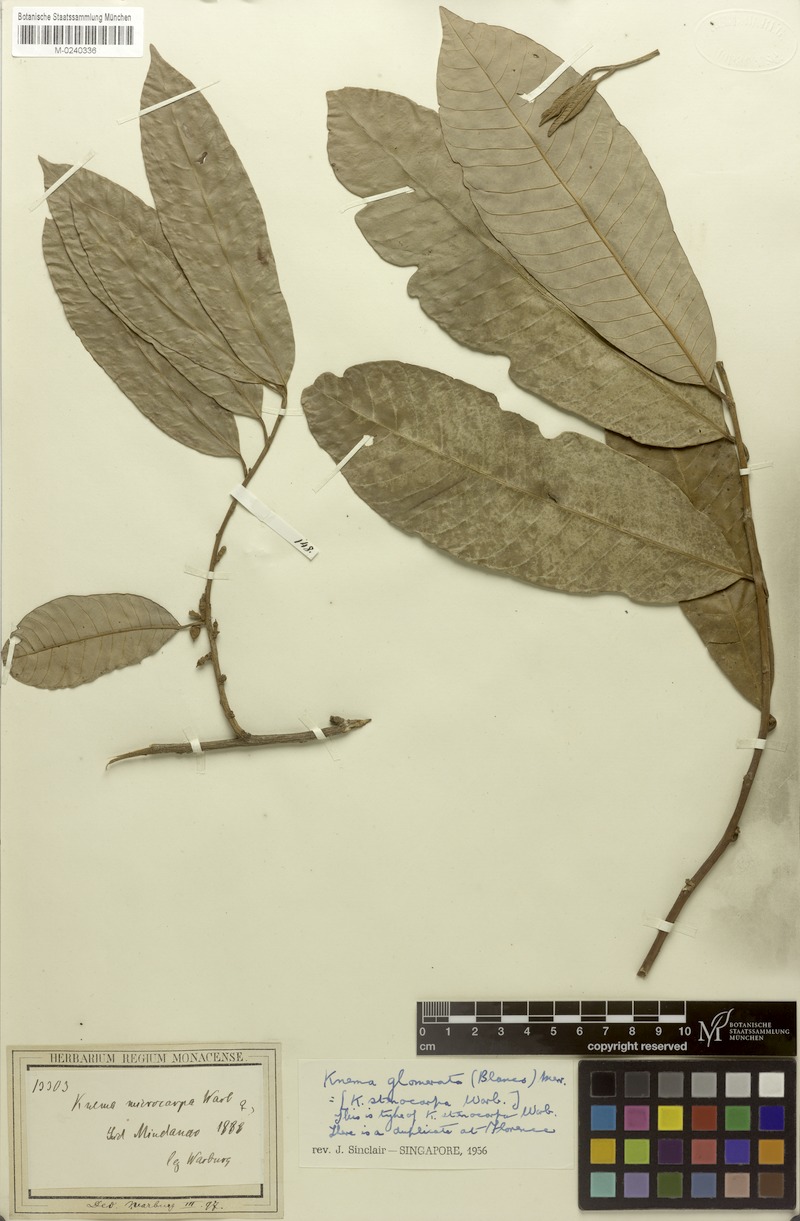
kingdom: Plantae
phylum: Tracheophyta
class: Magnoliopsida
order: Magnoliales
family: Myristicaceae
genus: Knema
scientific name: Knema glomerata
